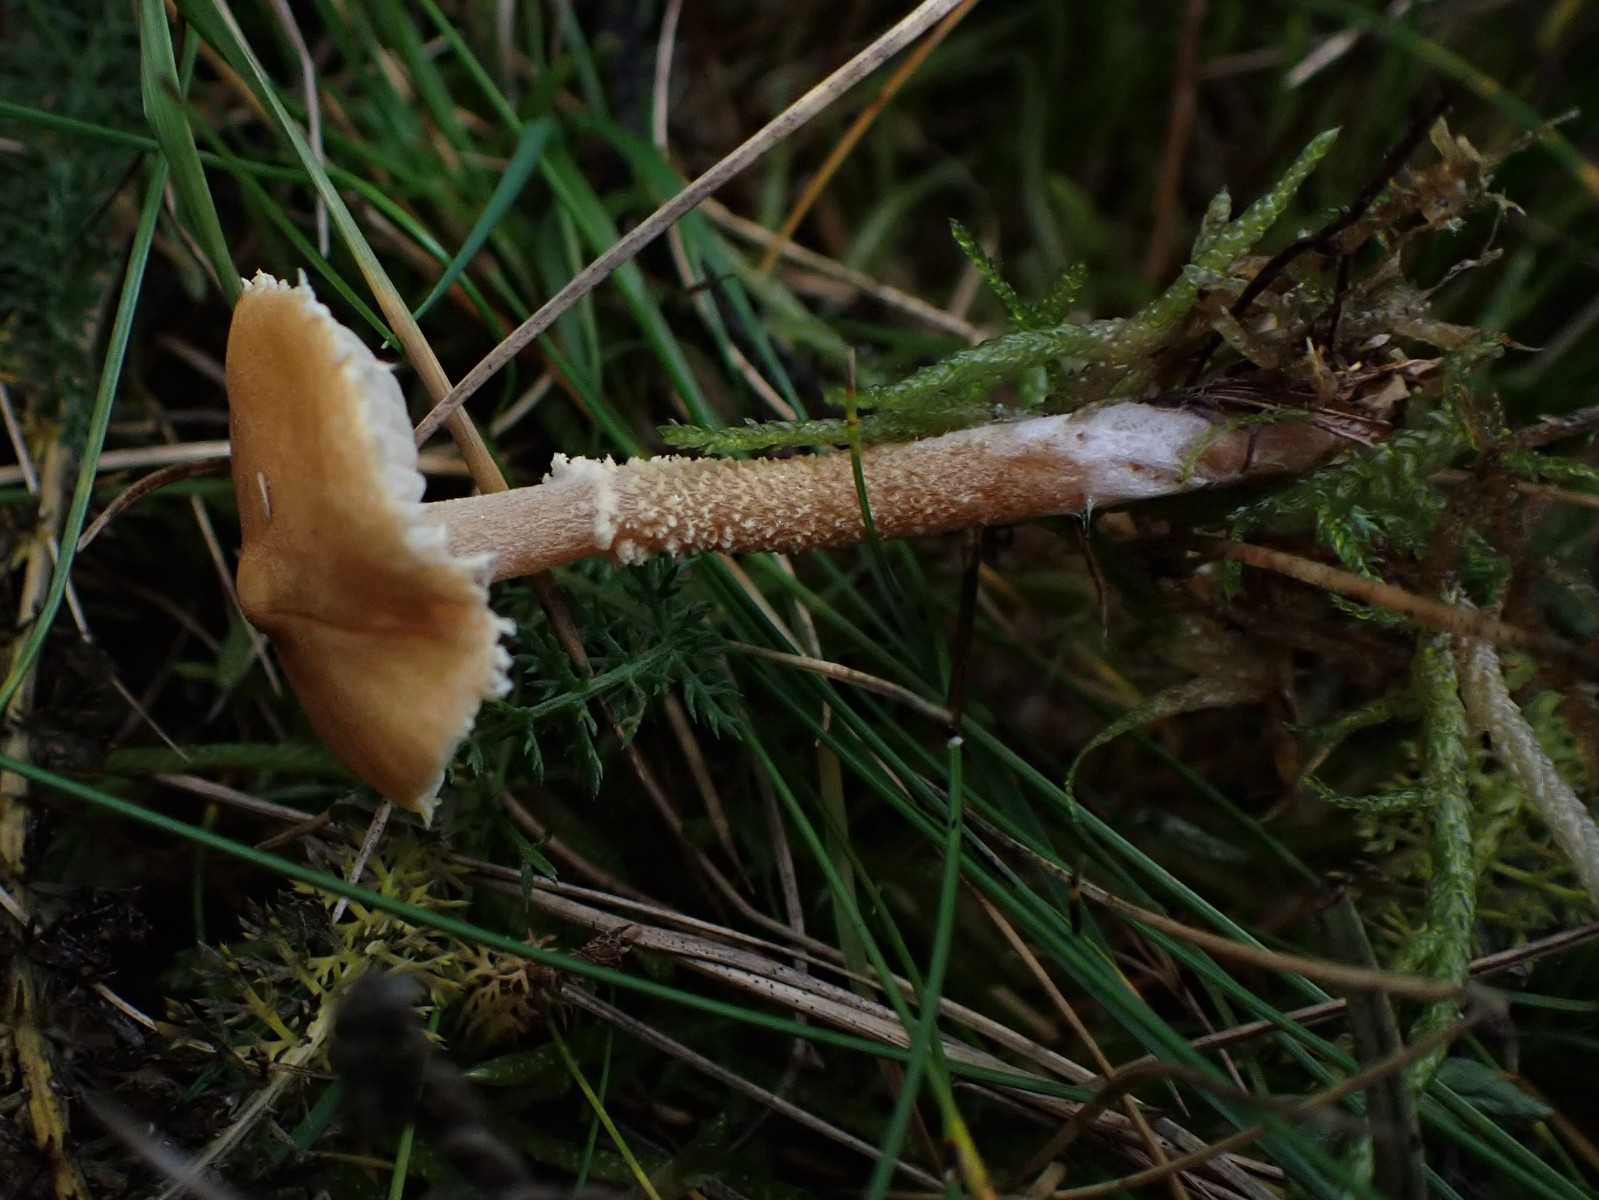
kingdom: Fungi
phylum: Basidiomycota
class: Agaricomycetes
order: Agaricales
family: Tricholomataceae
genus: Cystoderma
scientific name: Cystoderma amianthinum
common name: okkergul grynhat
